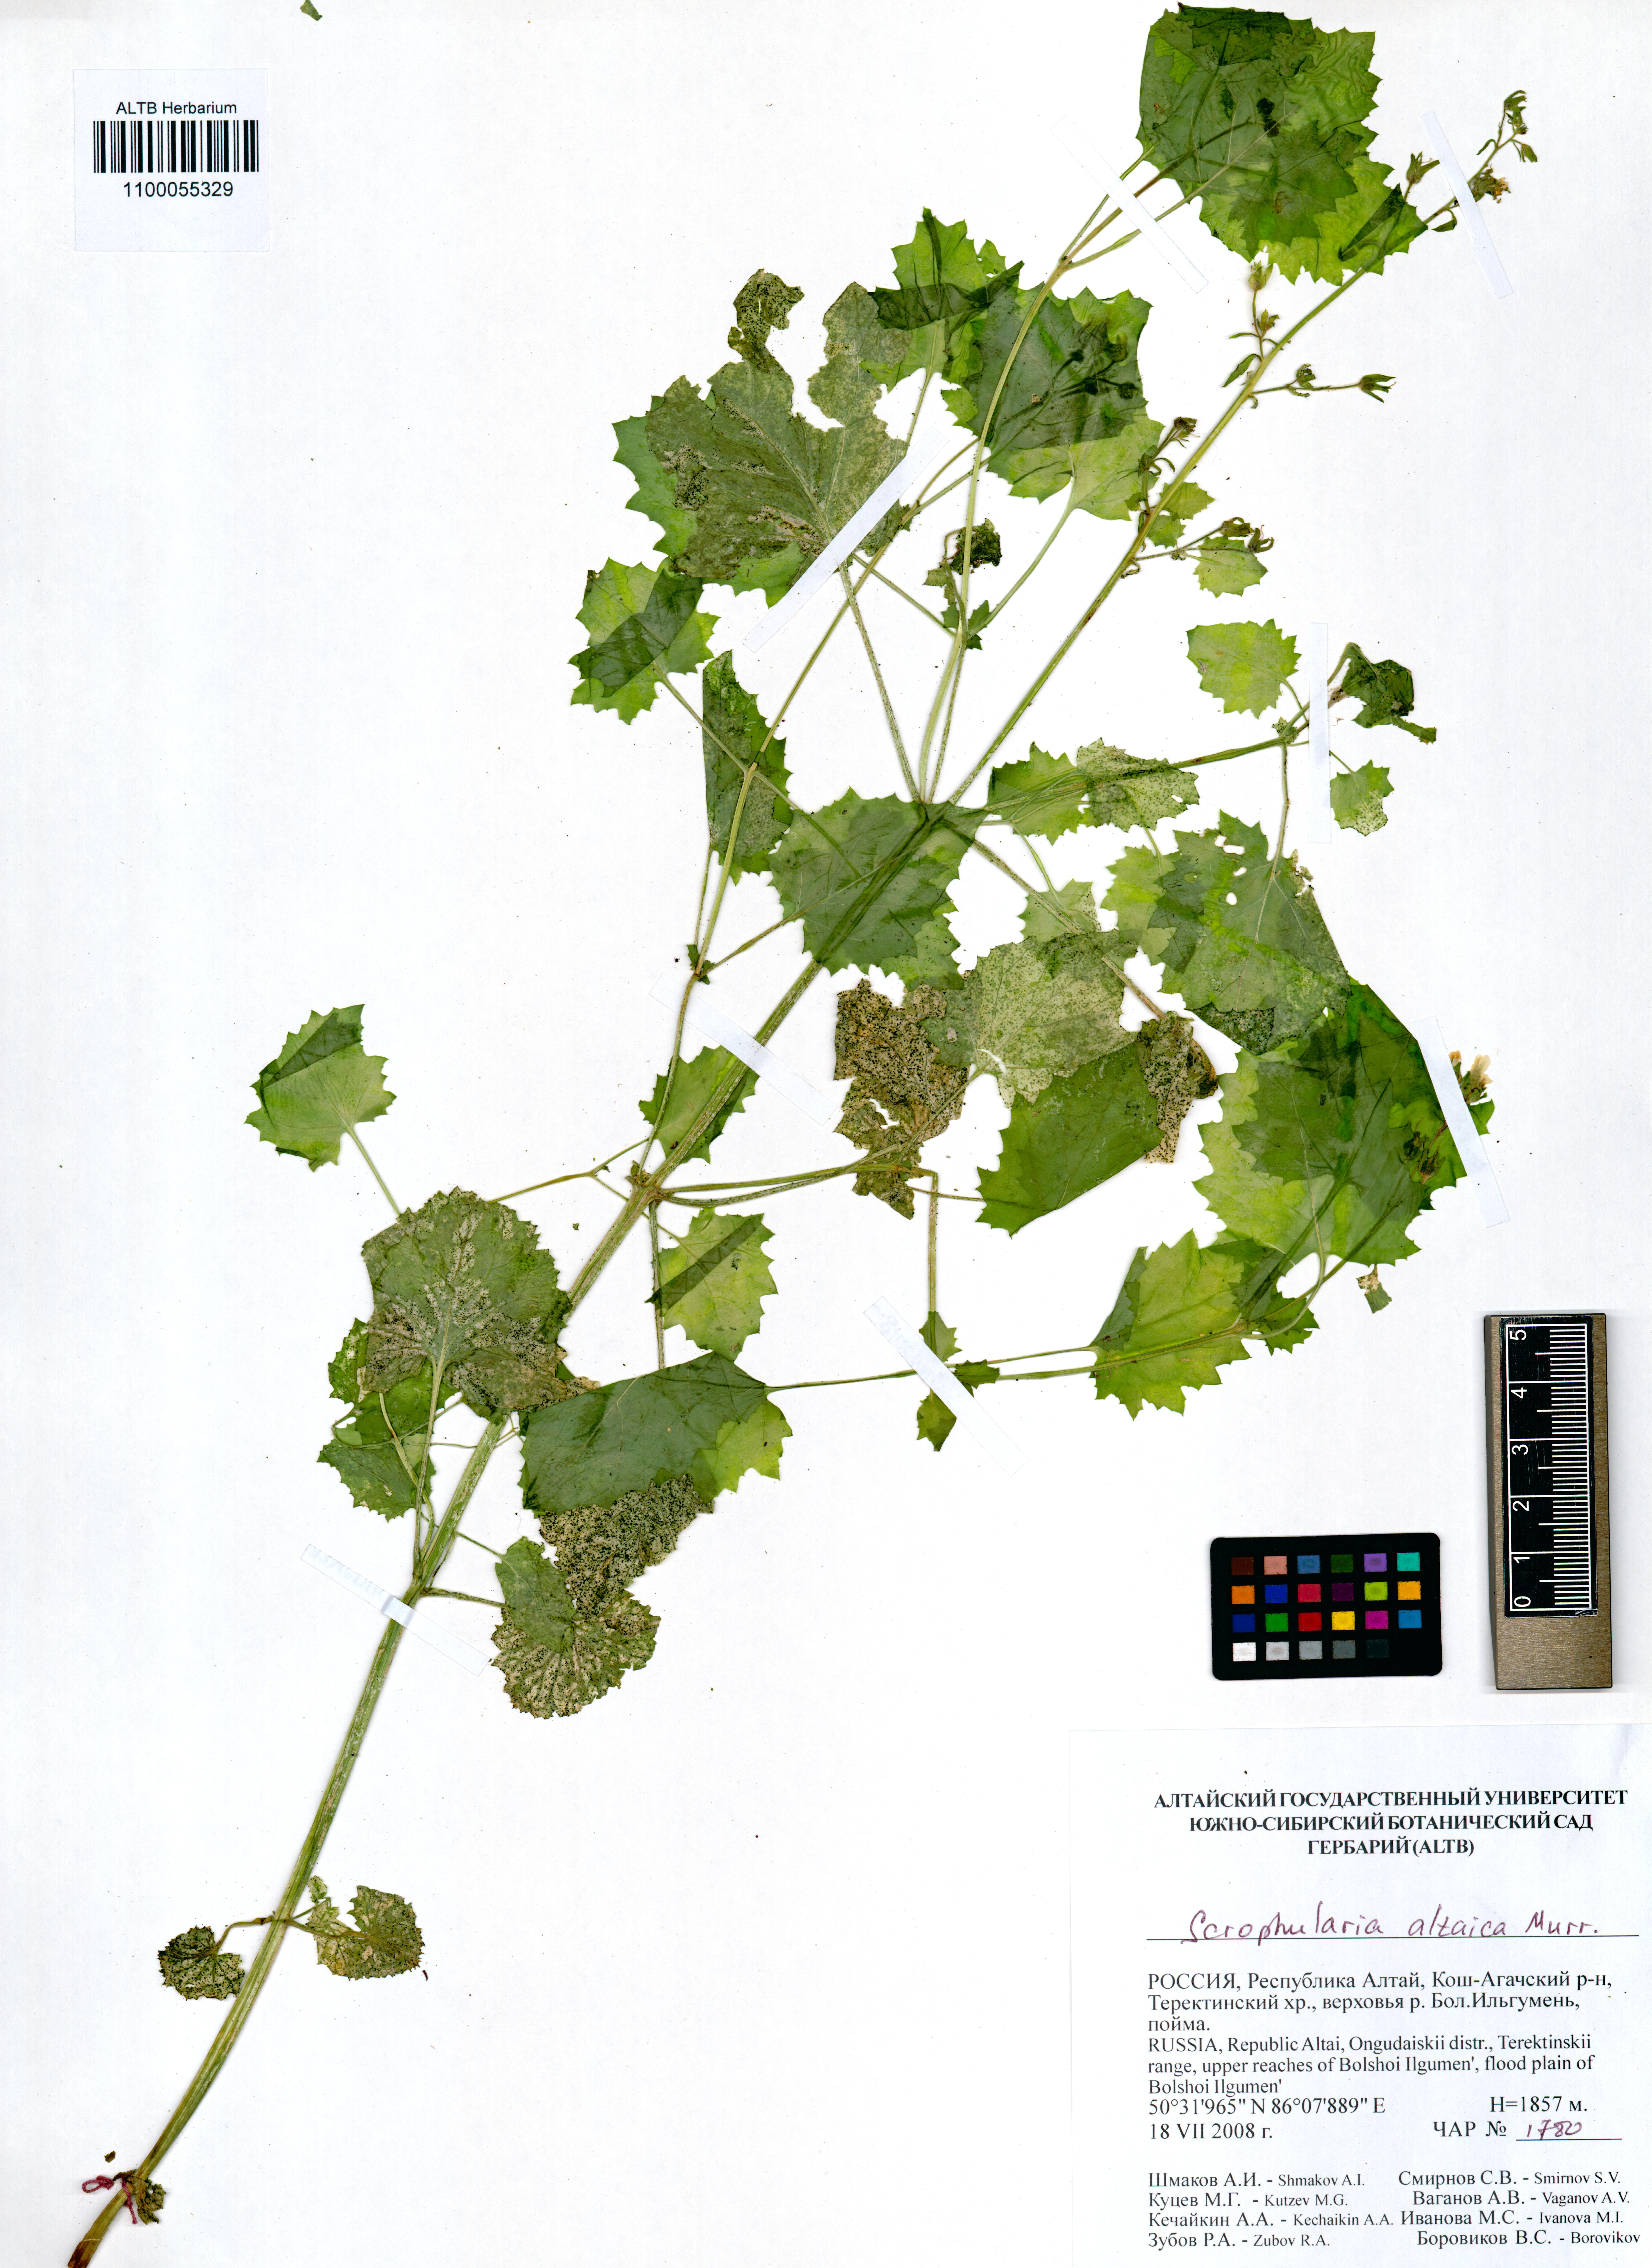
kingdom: Plantae
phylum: Tracheophyta
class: Magnoliopsida
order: Lamiales
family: Scrophulariaceae
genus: Scrophularia
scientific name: Scrophularia altaica
